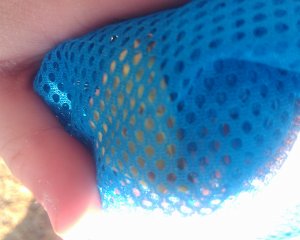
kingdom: Animalia
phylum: Arthropoda
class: Insecta
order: Lepidoptera
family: Pieridae
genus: Colias
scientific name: Colias philodice
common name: Clouded Sulphur
